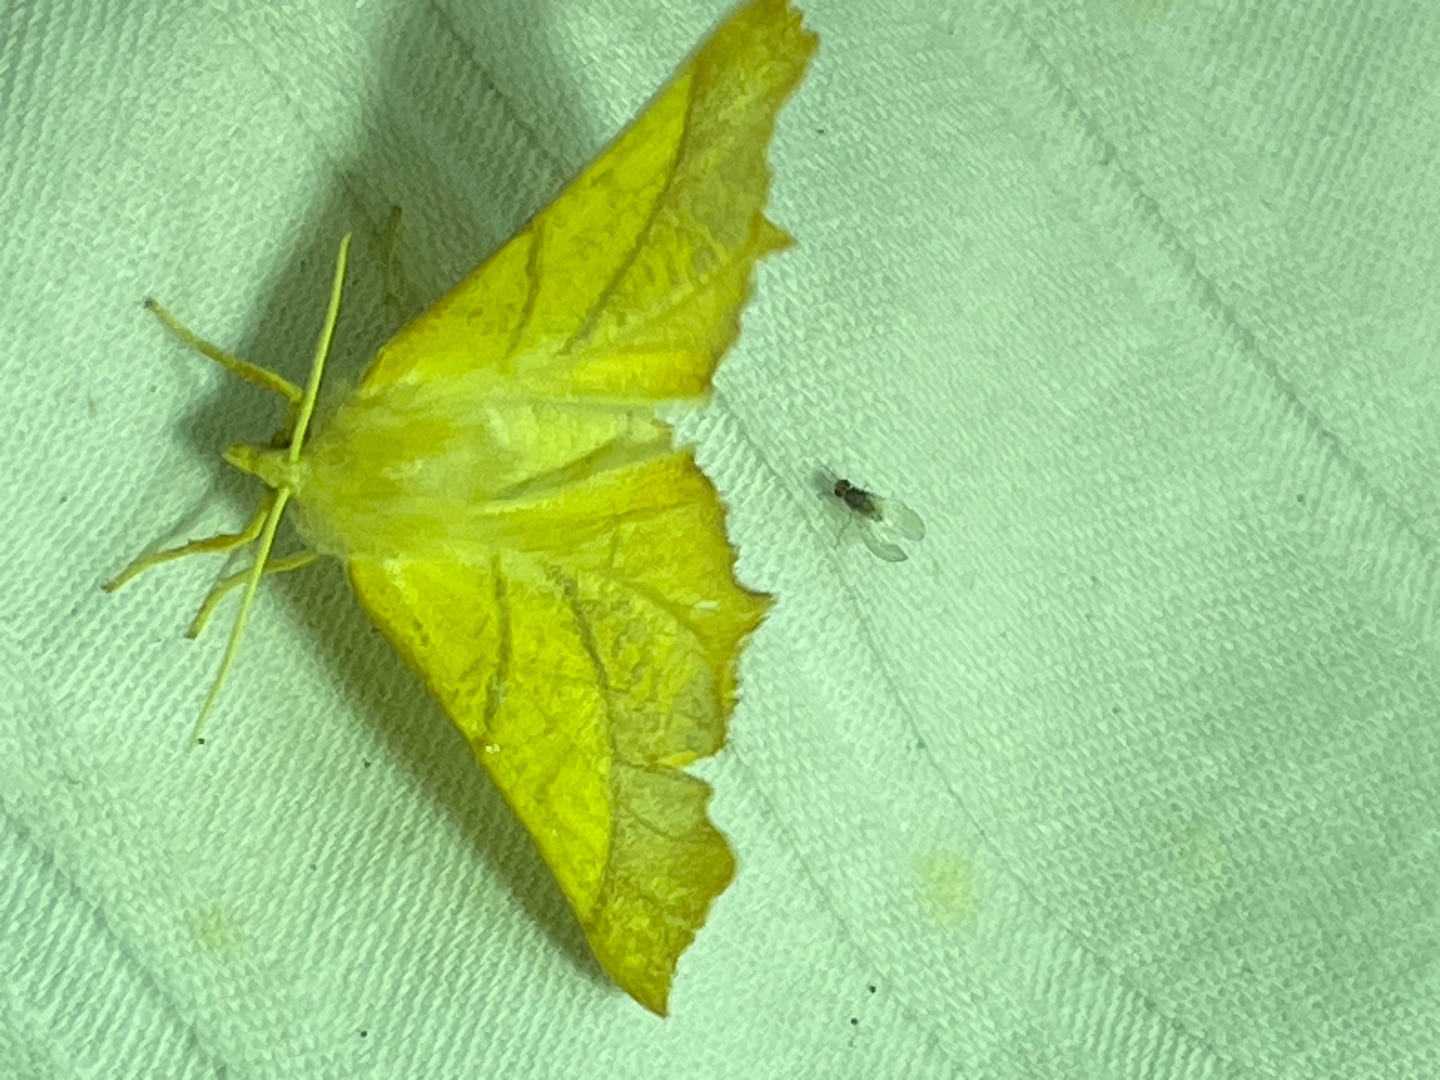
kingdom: Animalia
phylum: Arthropoda
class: Insecta
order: Lepidoptera
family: Geometridae
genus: Ennomos
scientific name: Ennomos fuscantaria
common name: Asketandmåler
